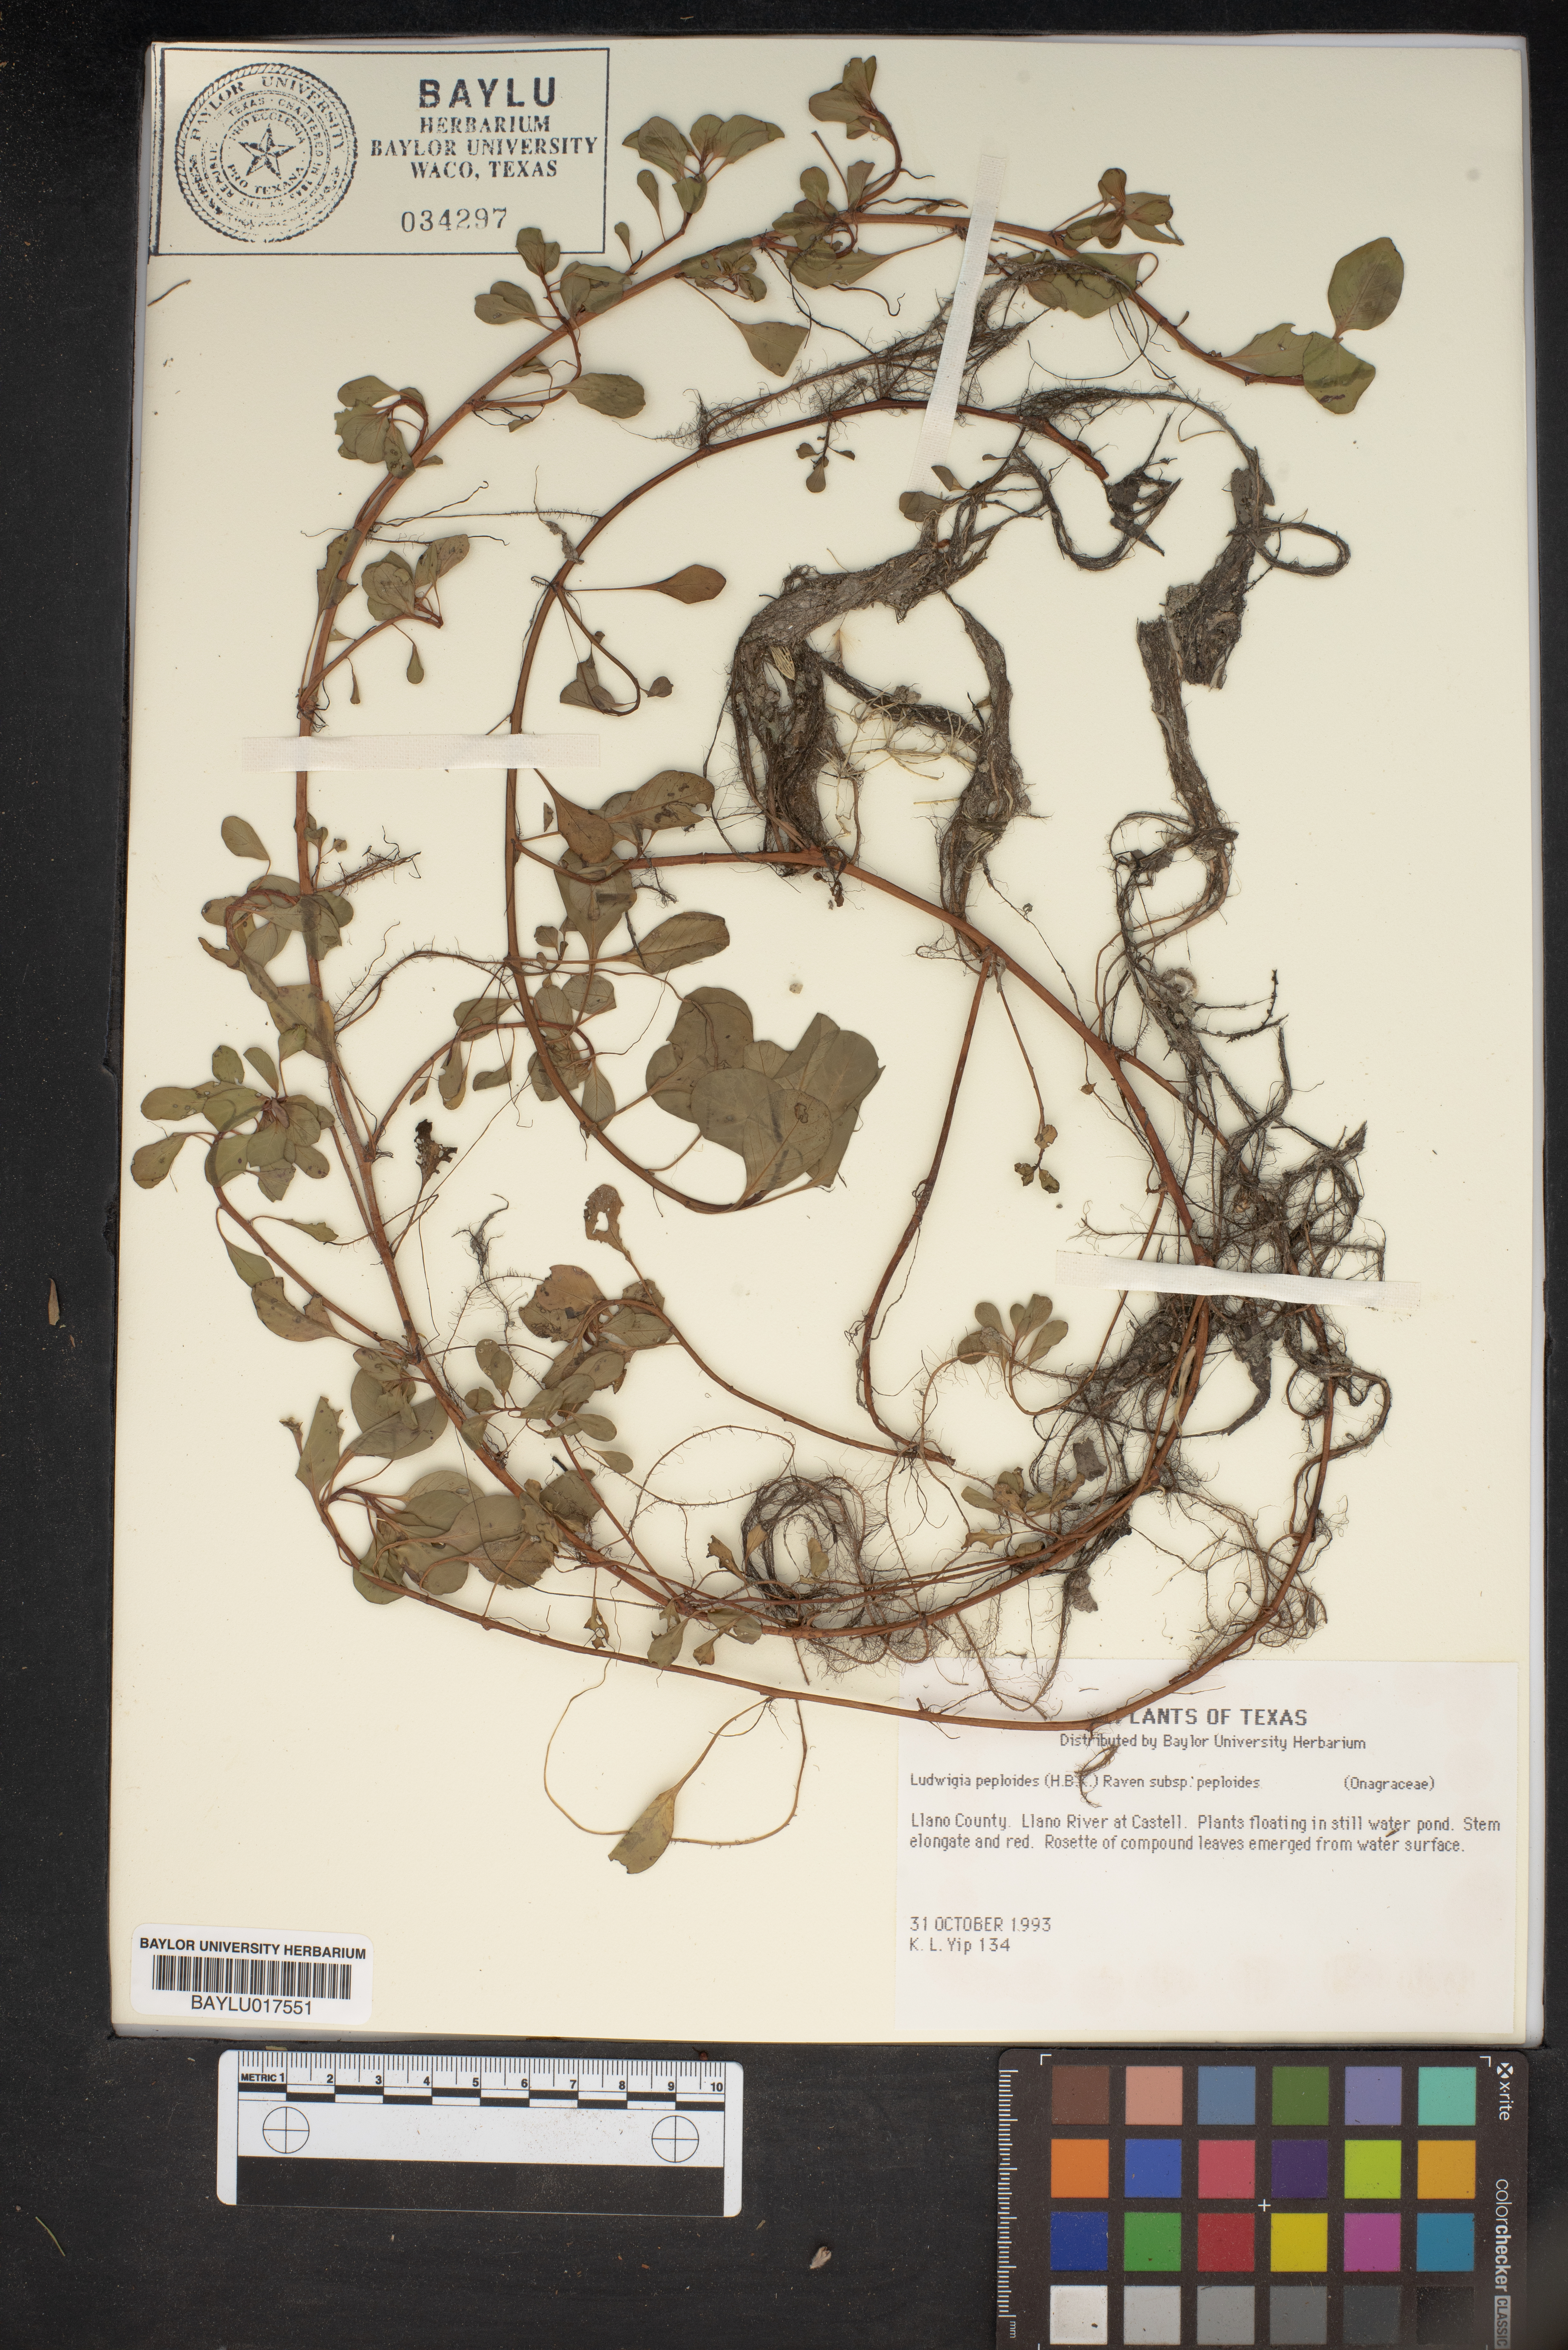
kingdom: Plantae
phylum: Tracheophyta
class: Magnoliopsida
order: Myrtales
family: Onagraceae
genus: Ludwigia
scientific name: Ludwigia peploides
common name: Floating primrose-willow
